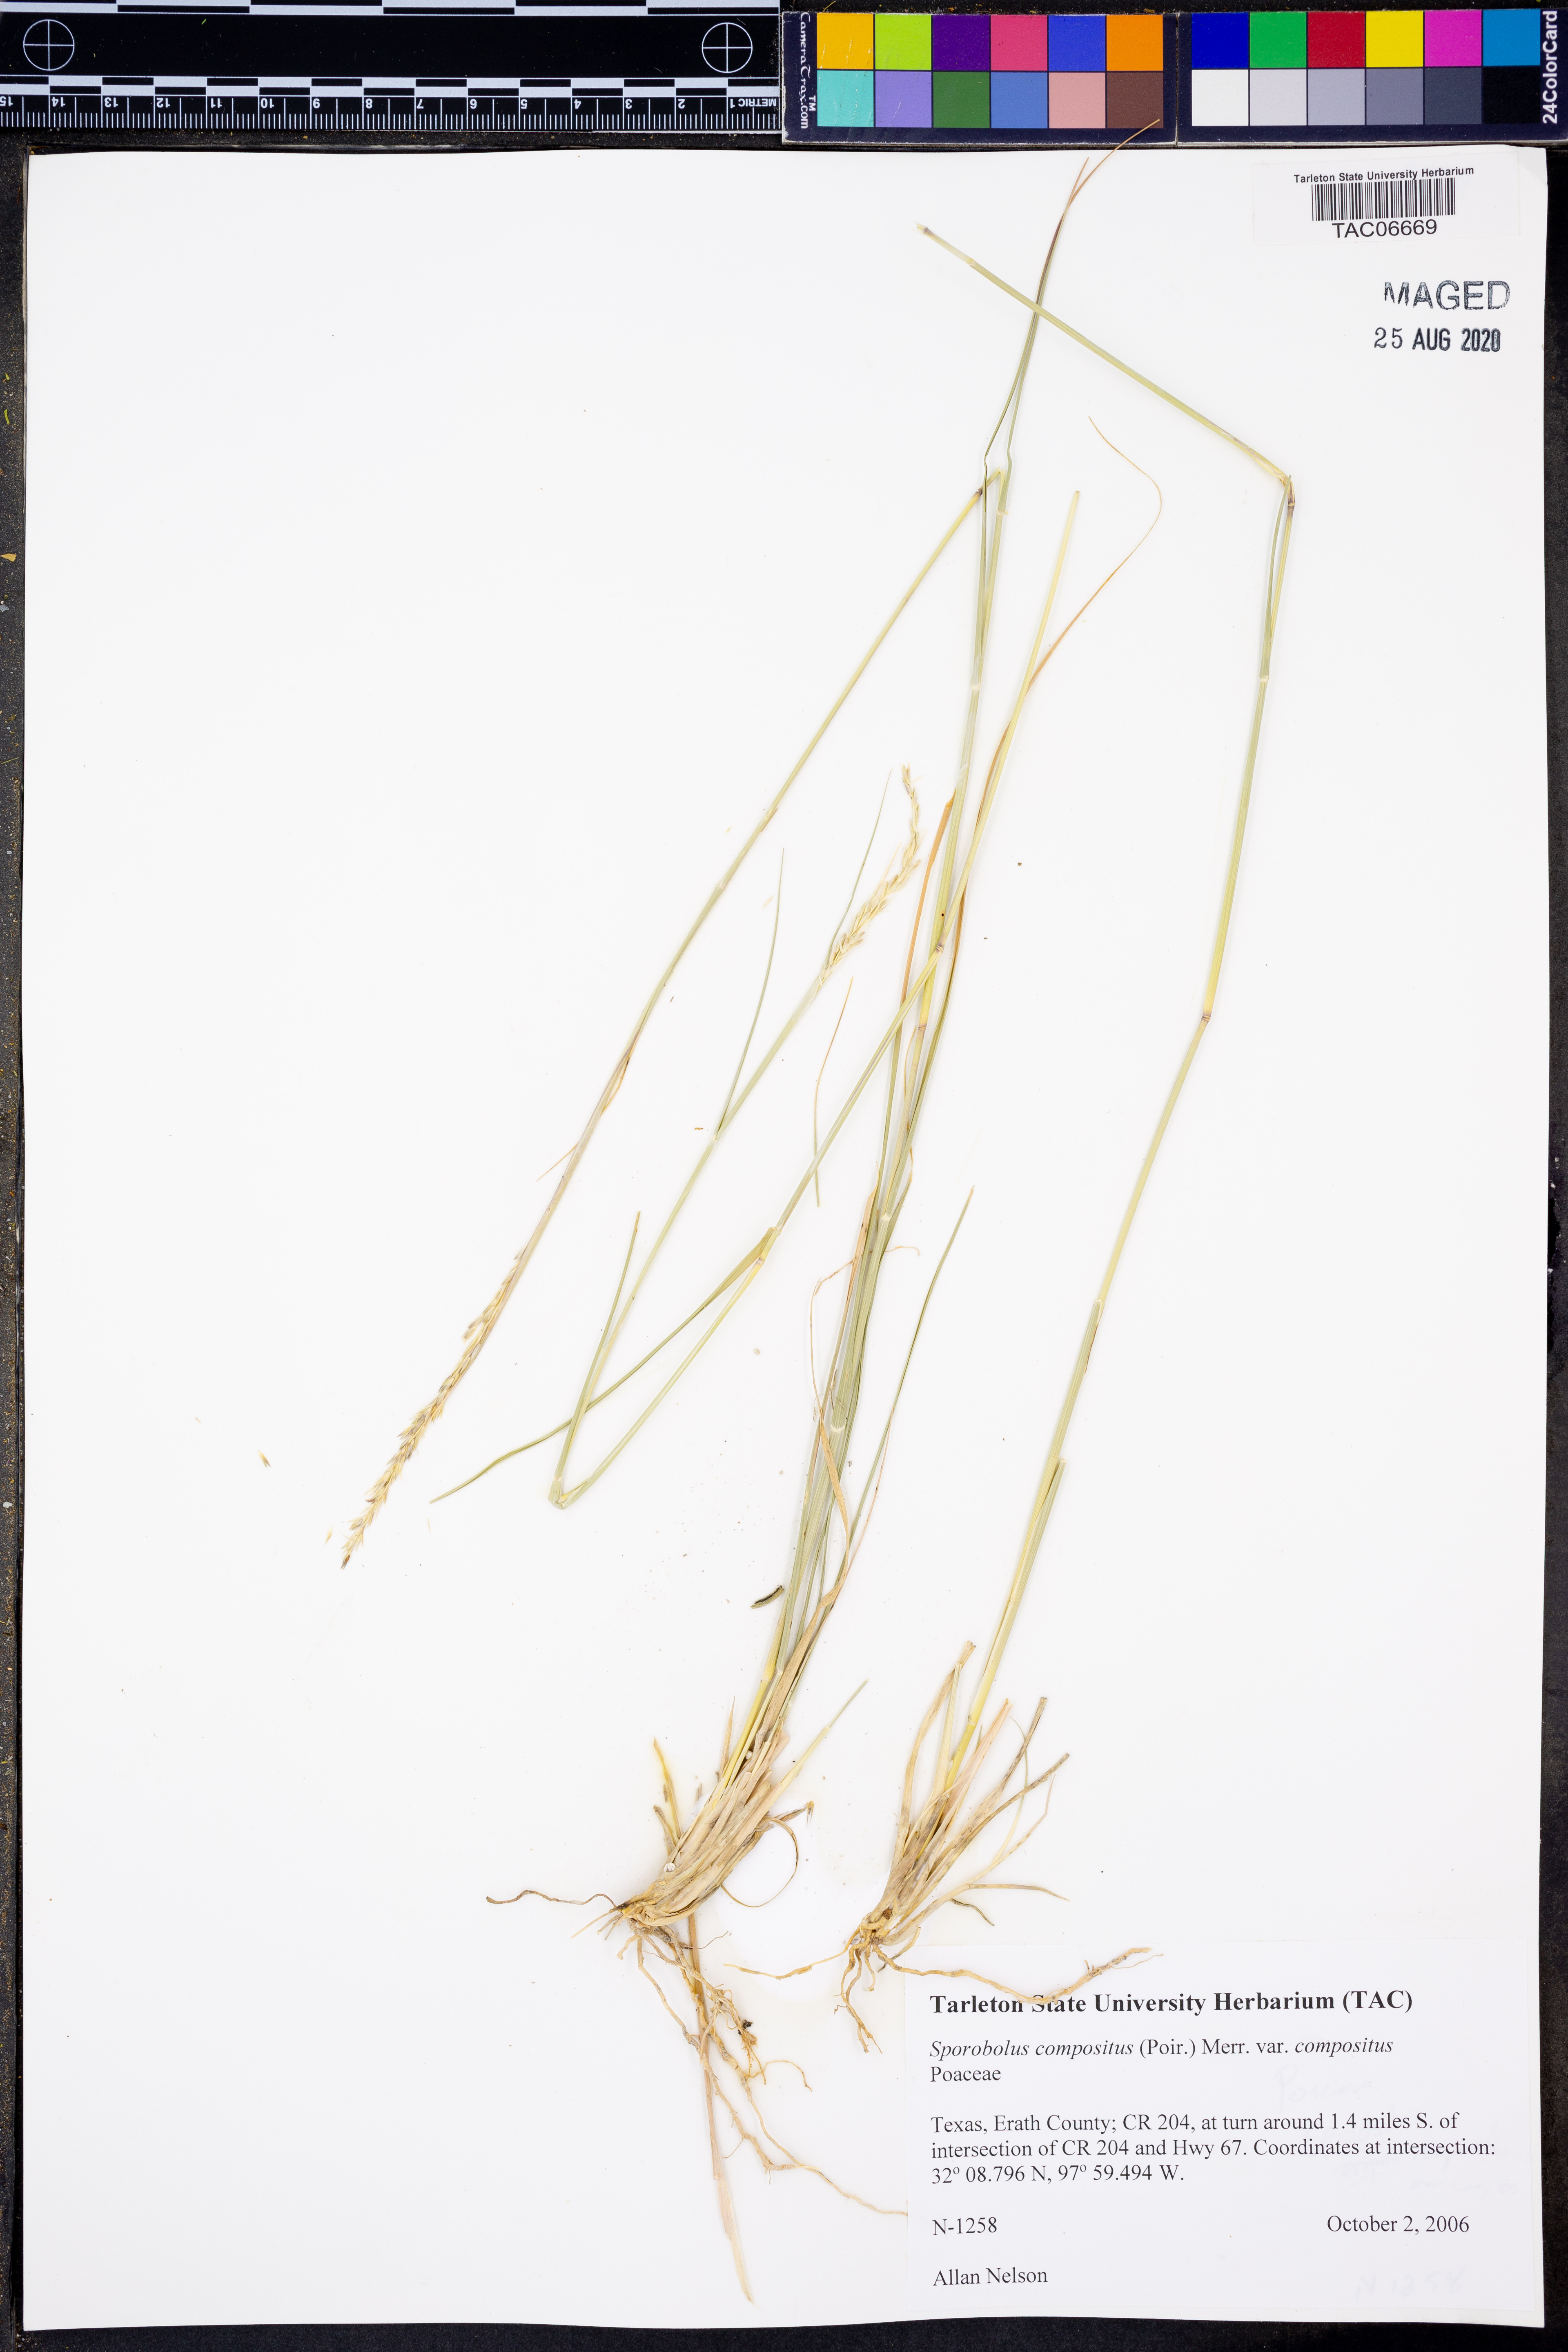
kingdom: Plantae
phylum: Tracheophyta
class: Liliopsida
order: Poales
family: Poaceae
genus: Sporobolus
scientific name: Sporobolus compositus
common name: Rough dropseed
